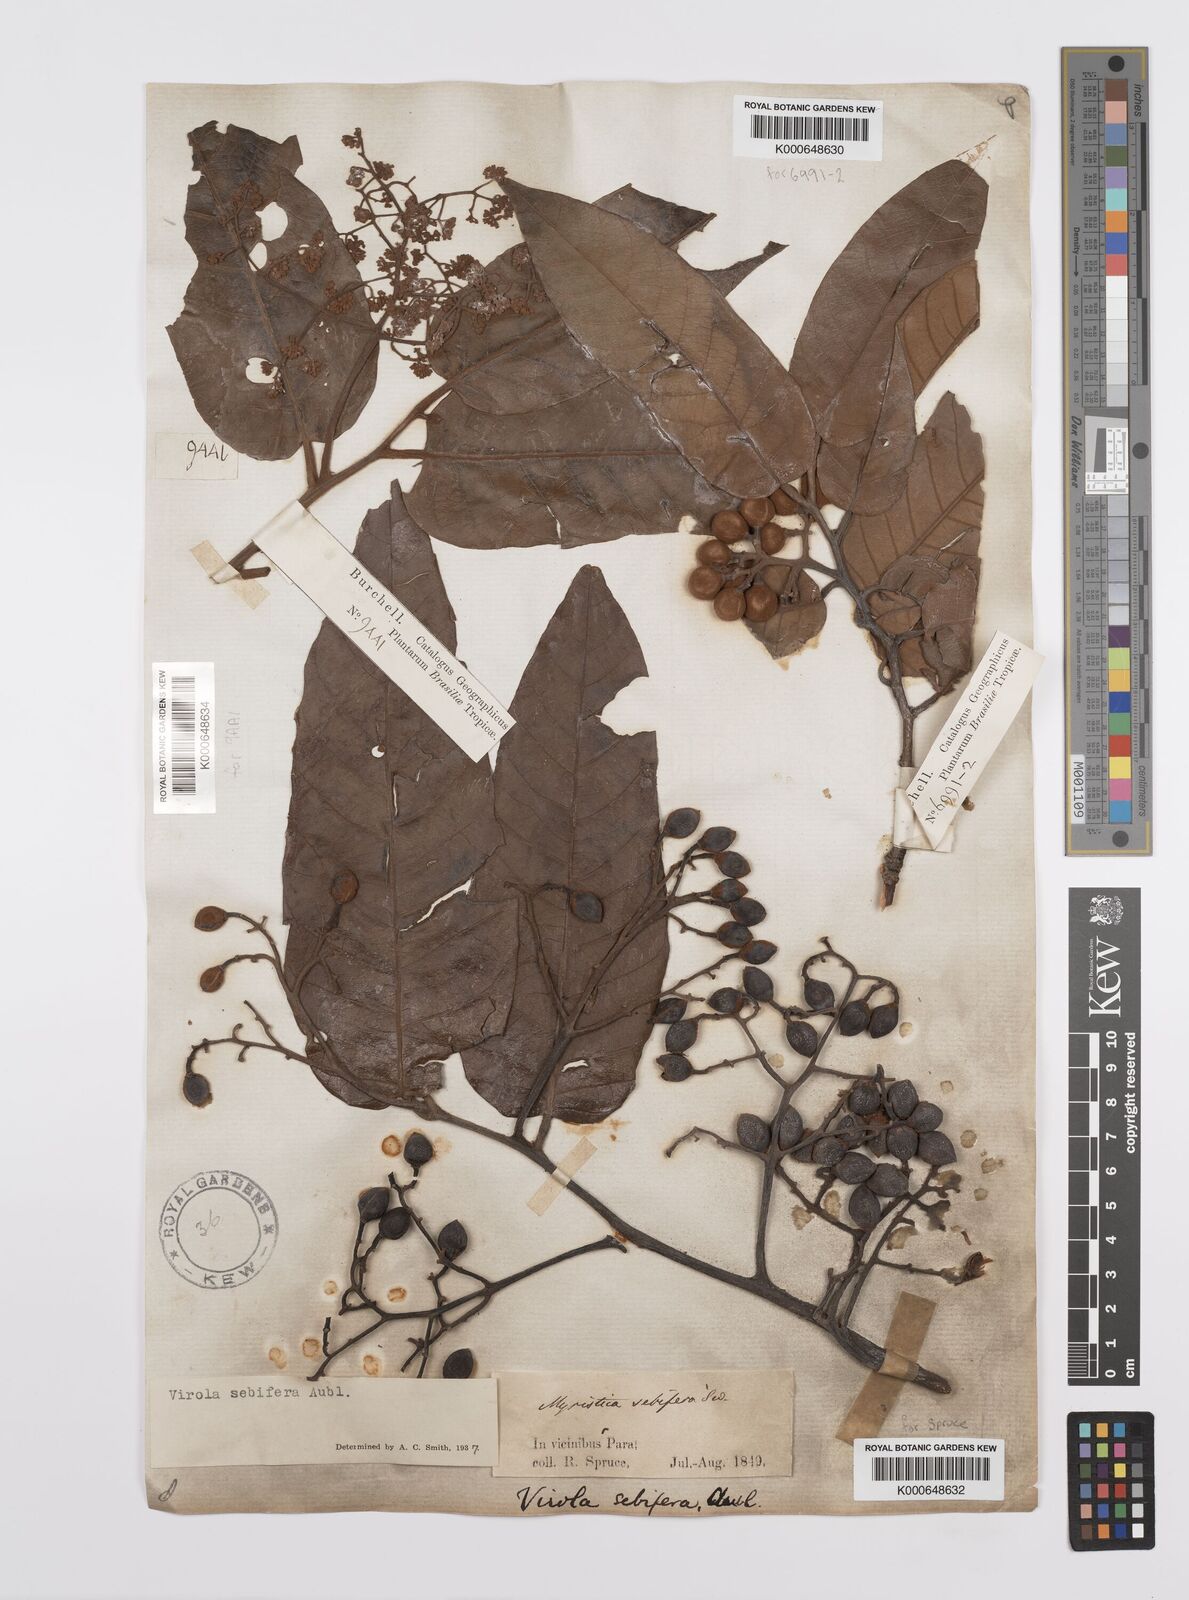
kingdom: Plantae
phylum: Tracheophyta
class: Magnoliopsida
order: Magnoliales
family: Myristicaceae
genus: Virola
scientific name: Virola sebifera
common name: Red ucuuba
